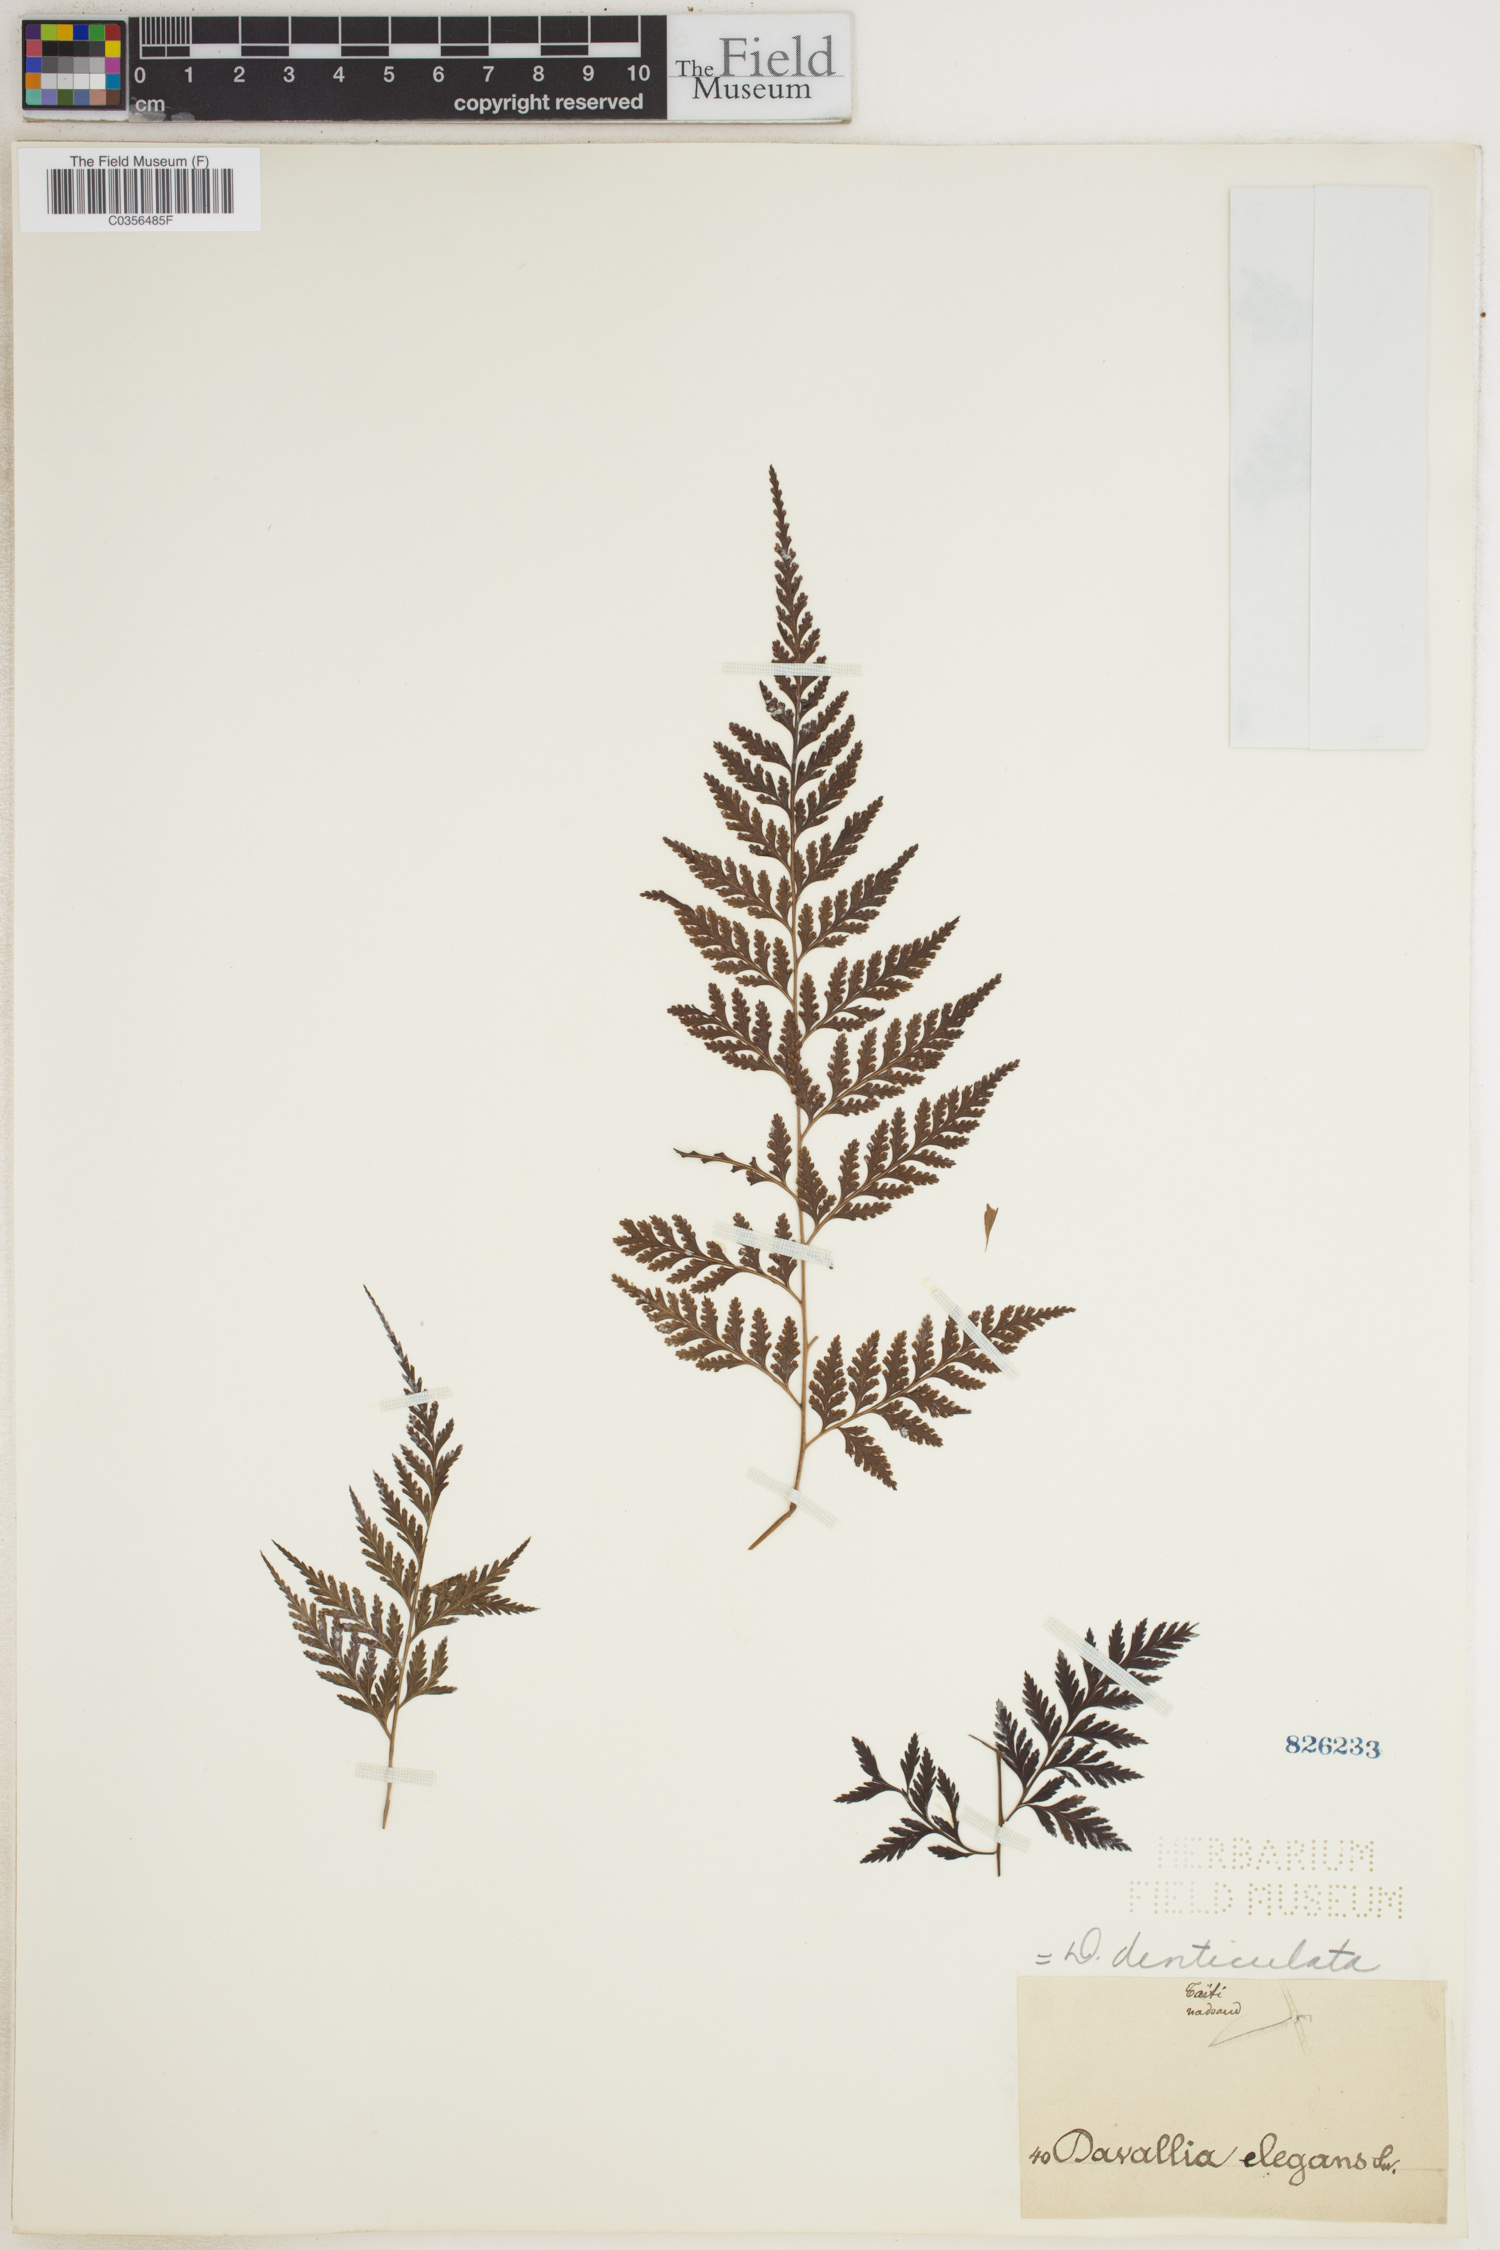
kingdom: Plantae
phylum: Tracheophyta
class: Polypodiopsida
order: Polypodiales
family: Davalliaceae
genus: Davallia
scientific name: Davallia denticulata
